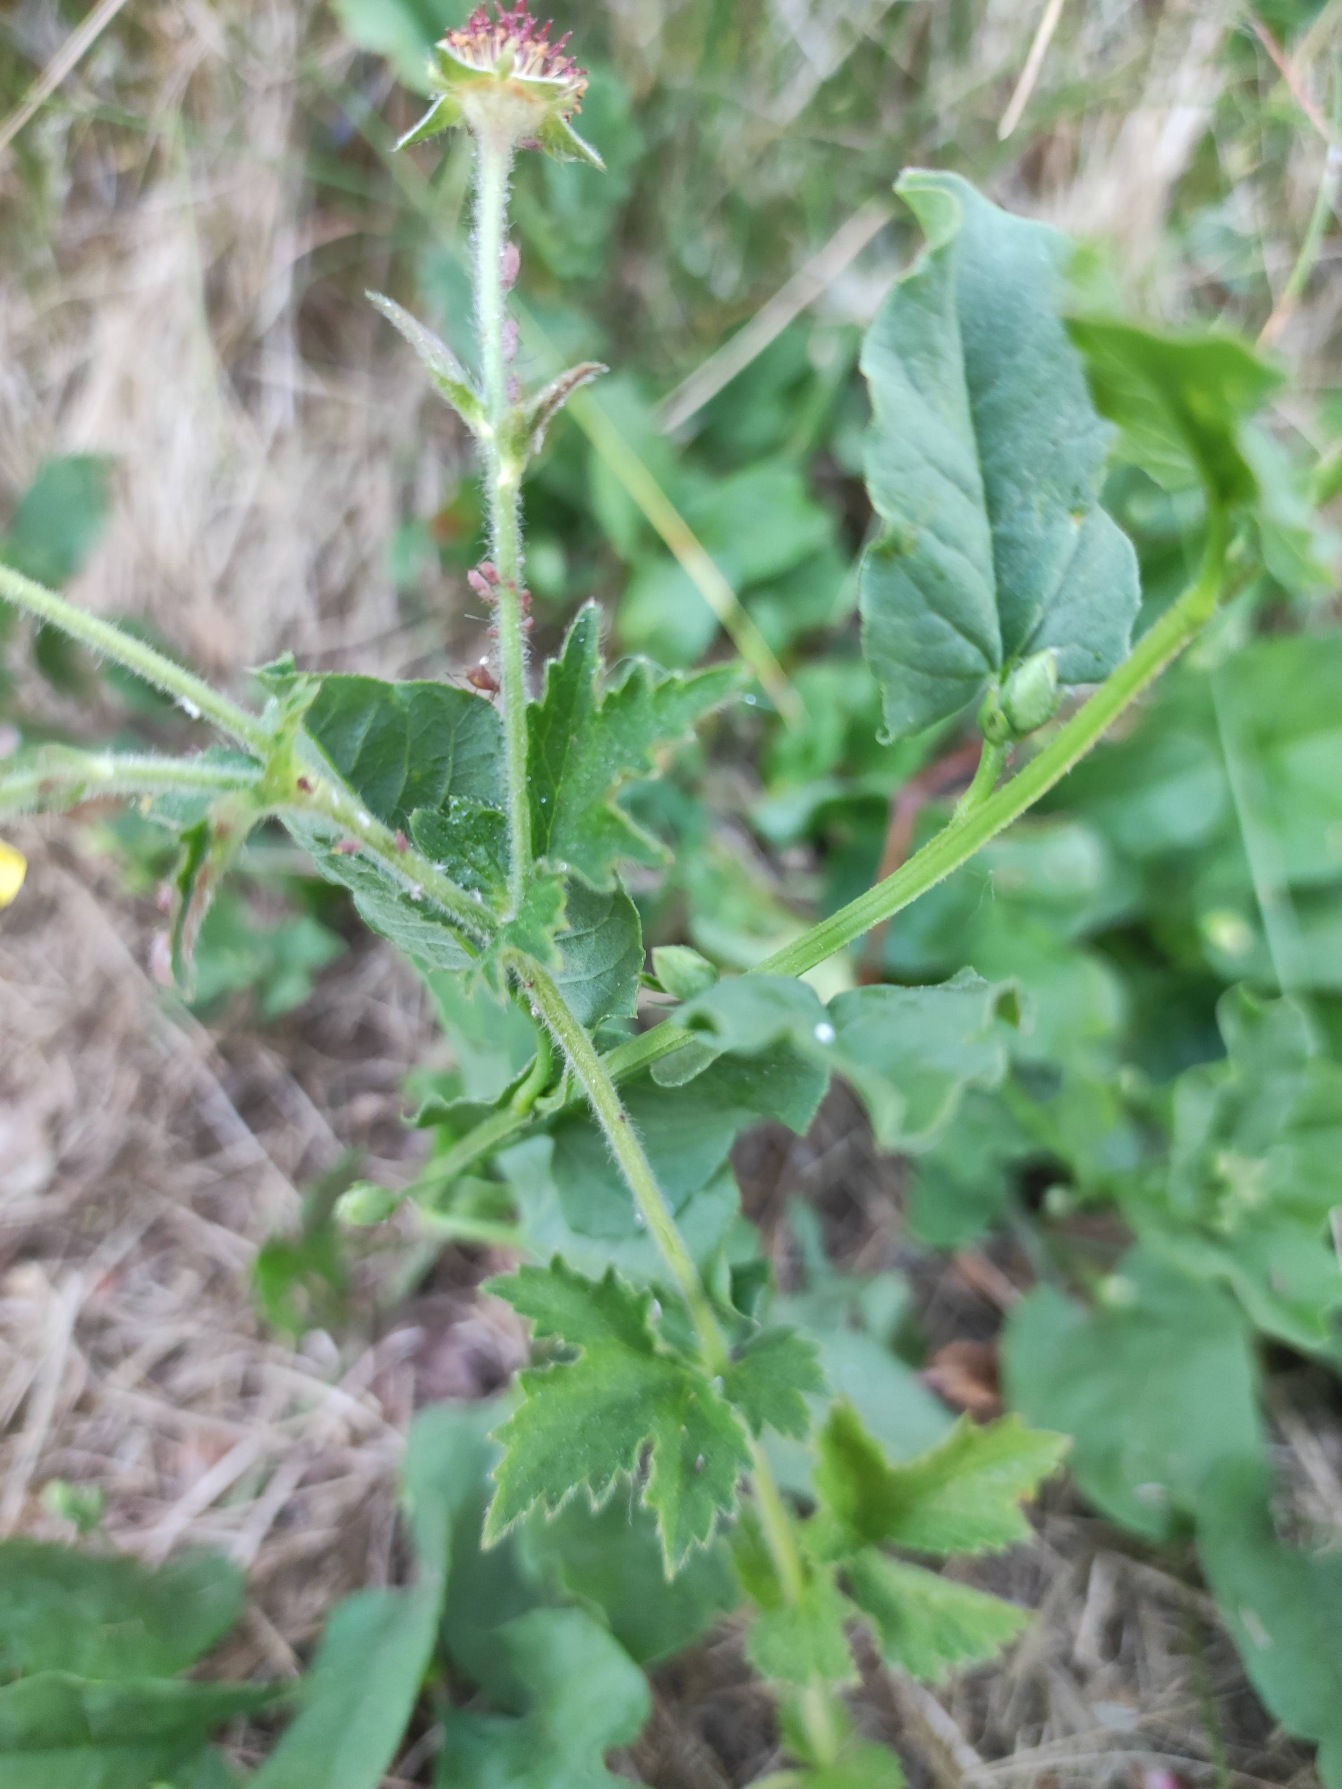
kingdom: Plantae
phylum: Tracheophyta
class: Magnoliopsida
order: Rosales
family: Rosaceae
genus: Geum
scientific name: Geum urbanum
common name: Feber-nellikerod
